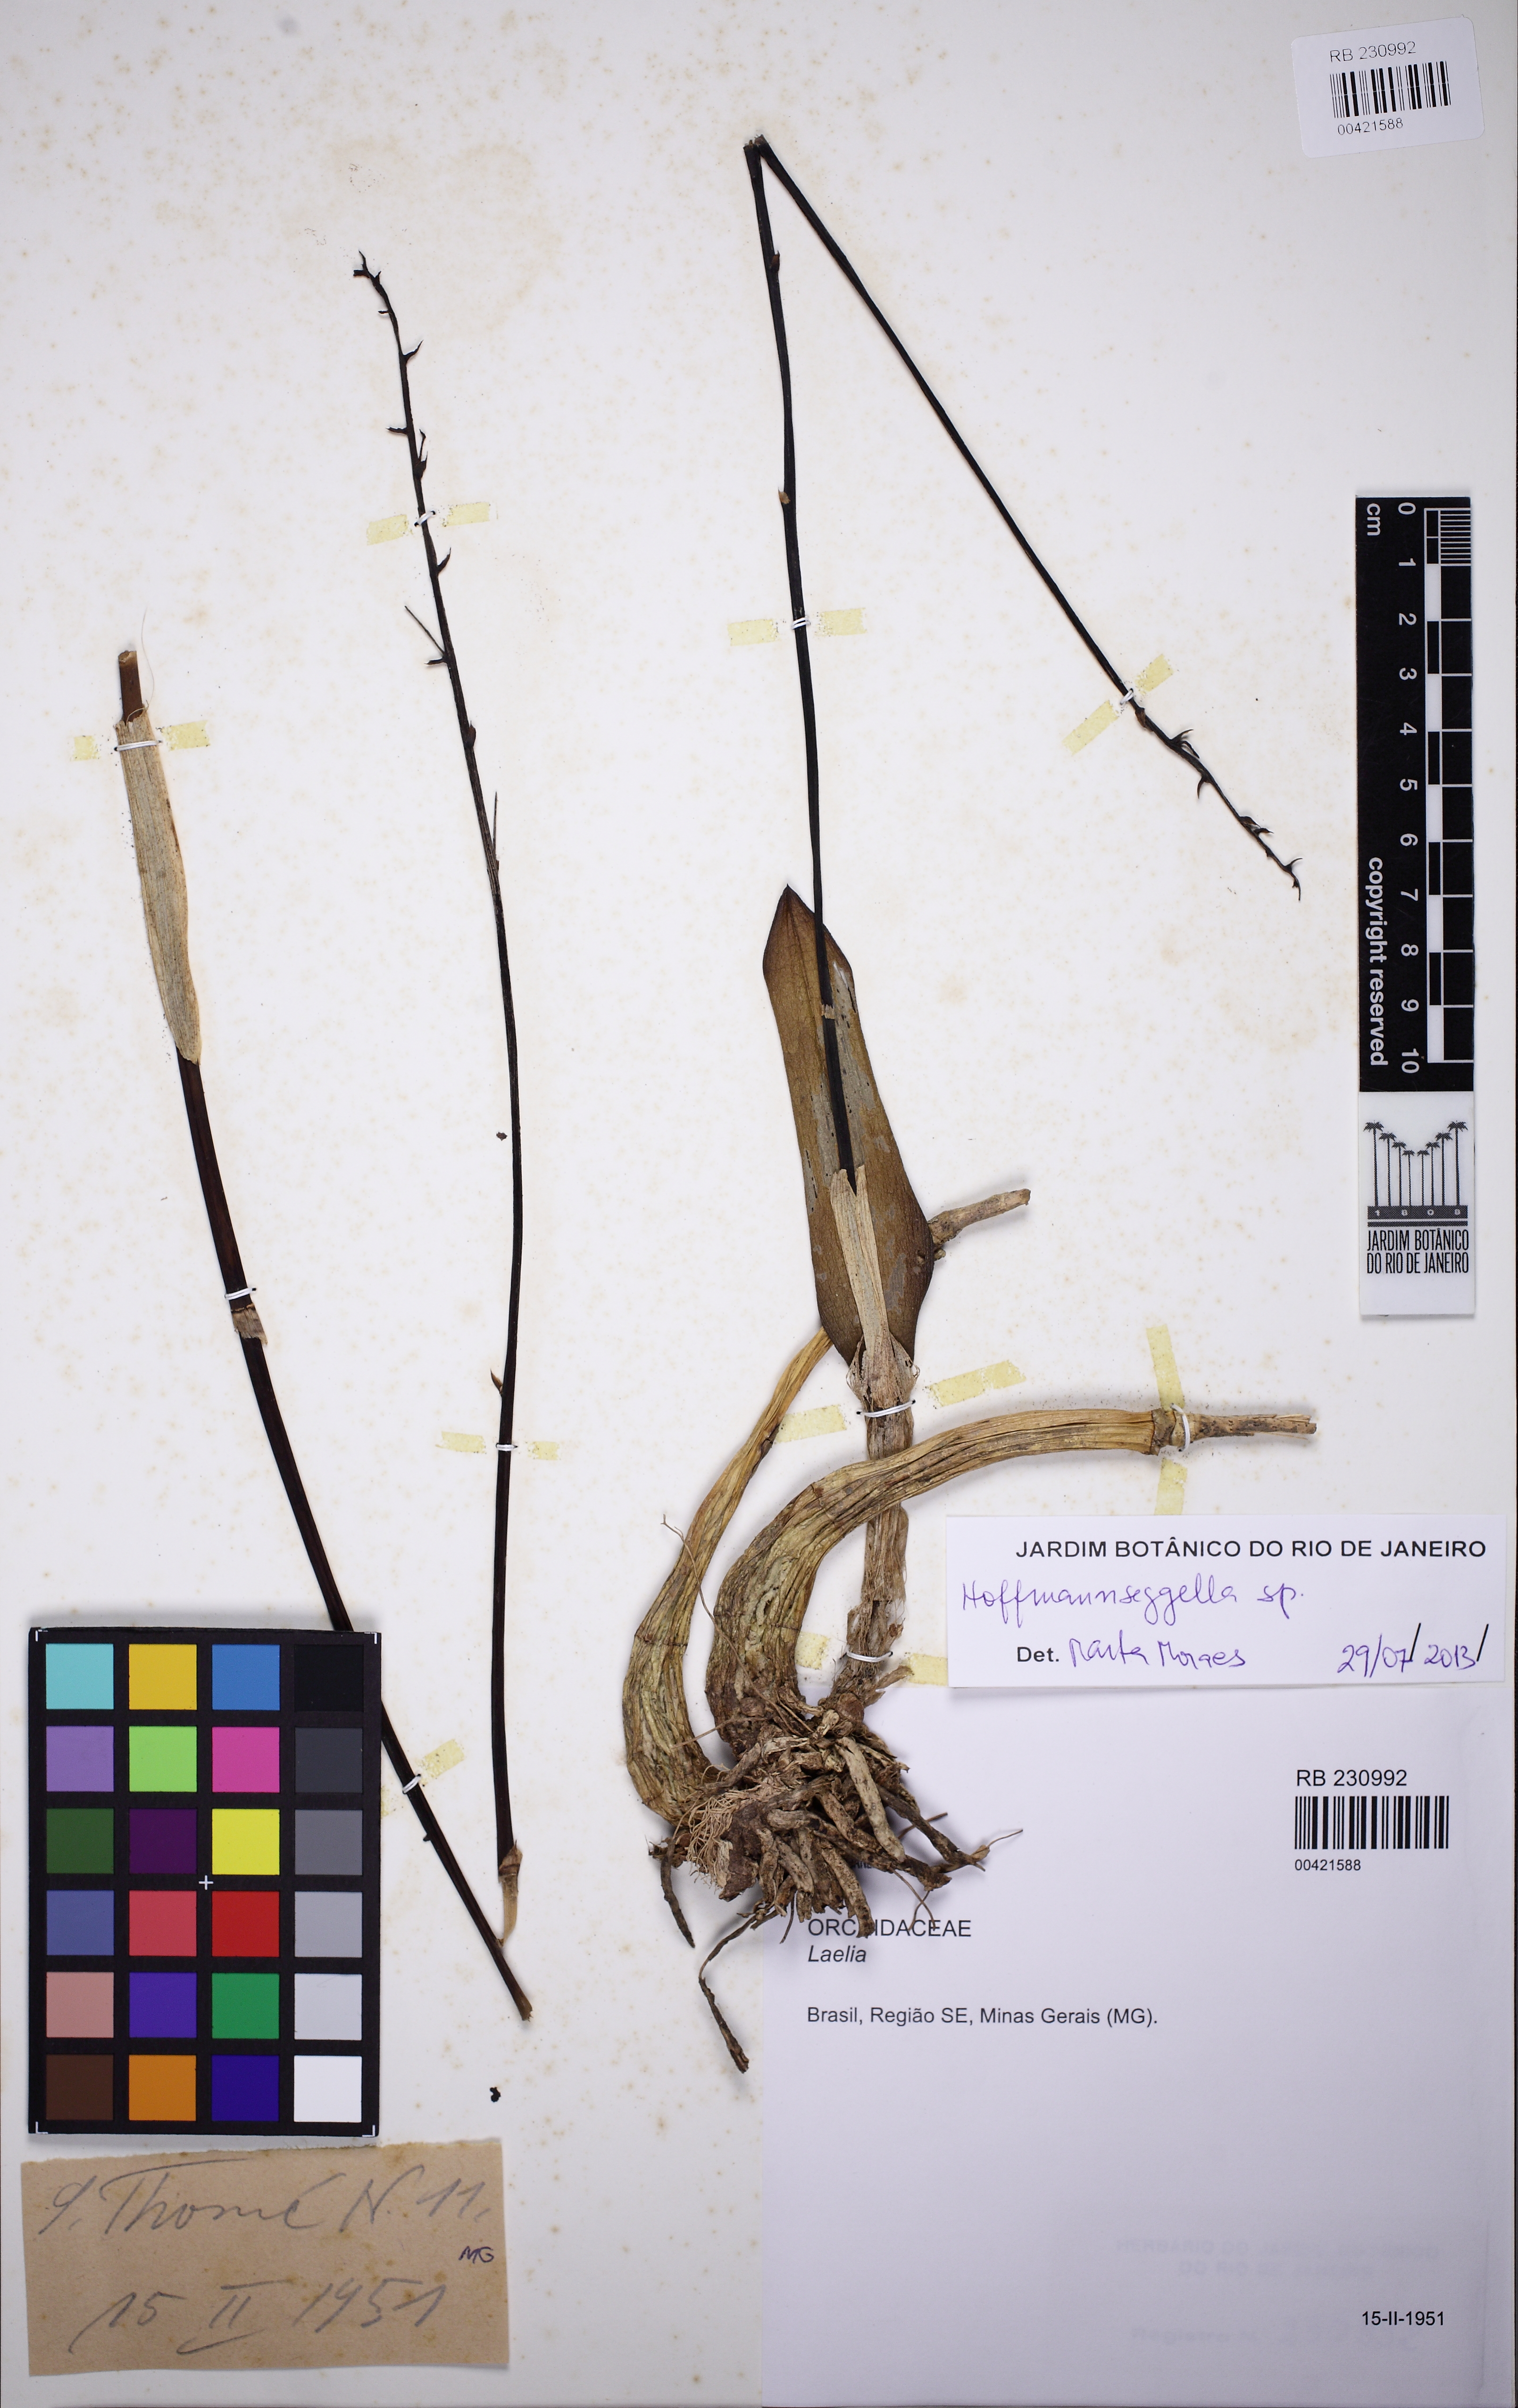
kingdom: Plantae
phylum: Tracheophyta
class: Liliopsida
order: Asparagales
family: Orchidaceae
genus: Cattleya
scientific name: Cattleya
